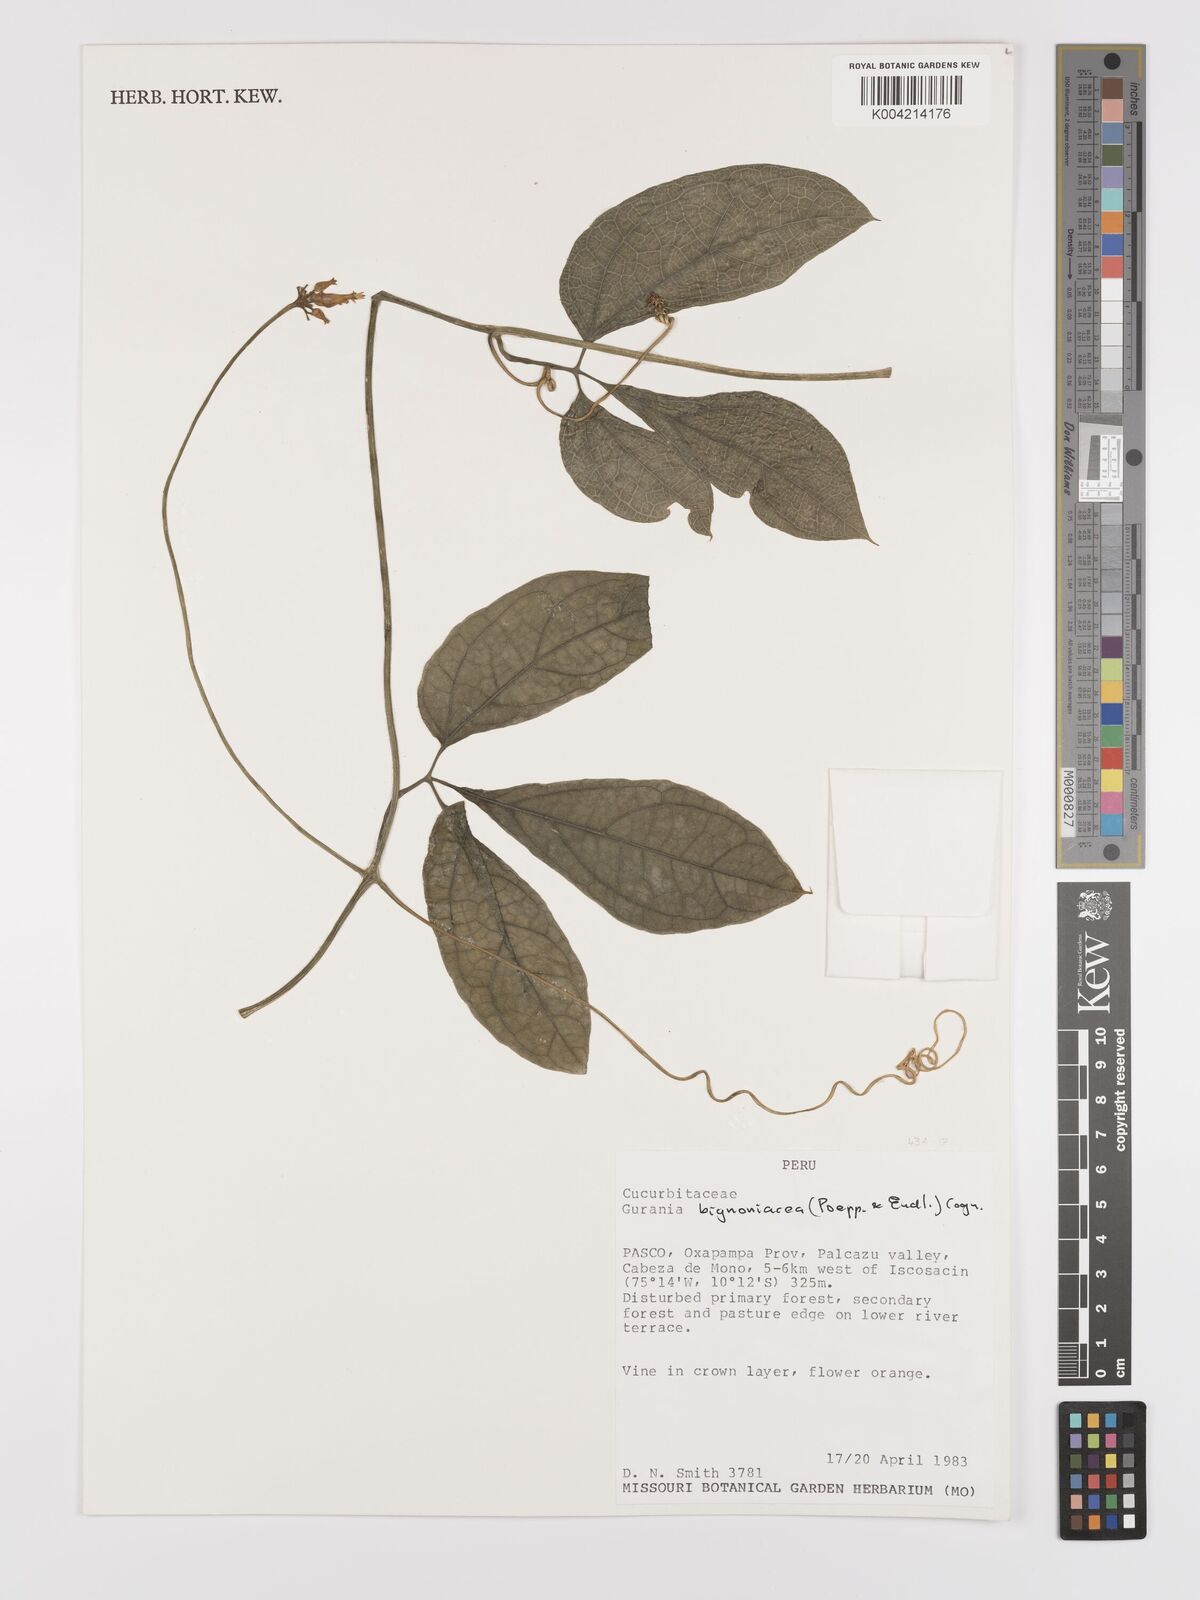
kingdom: Plantae
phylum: Tracheophyta
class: Magnoliopsida
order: Cucurbitales
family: Cucurbitaceae
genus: Gurania
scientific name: Gurania bignoniacea
